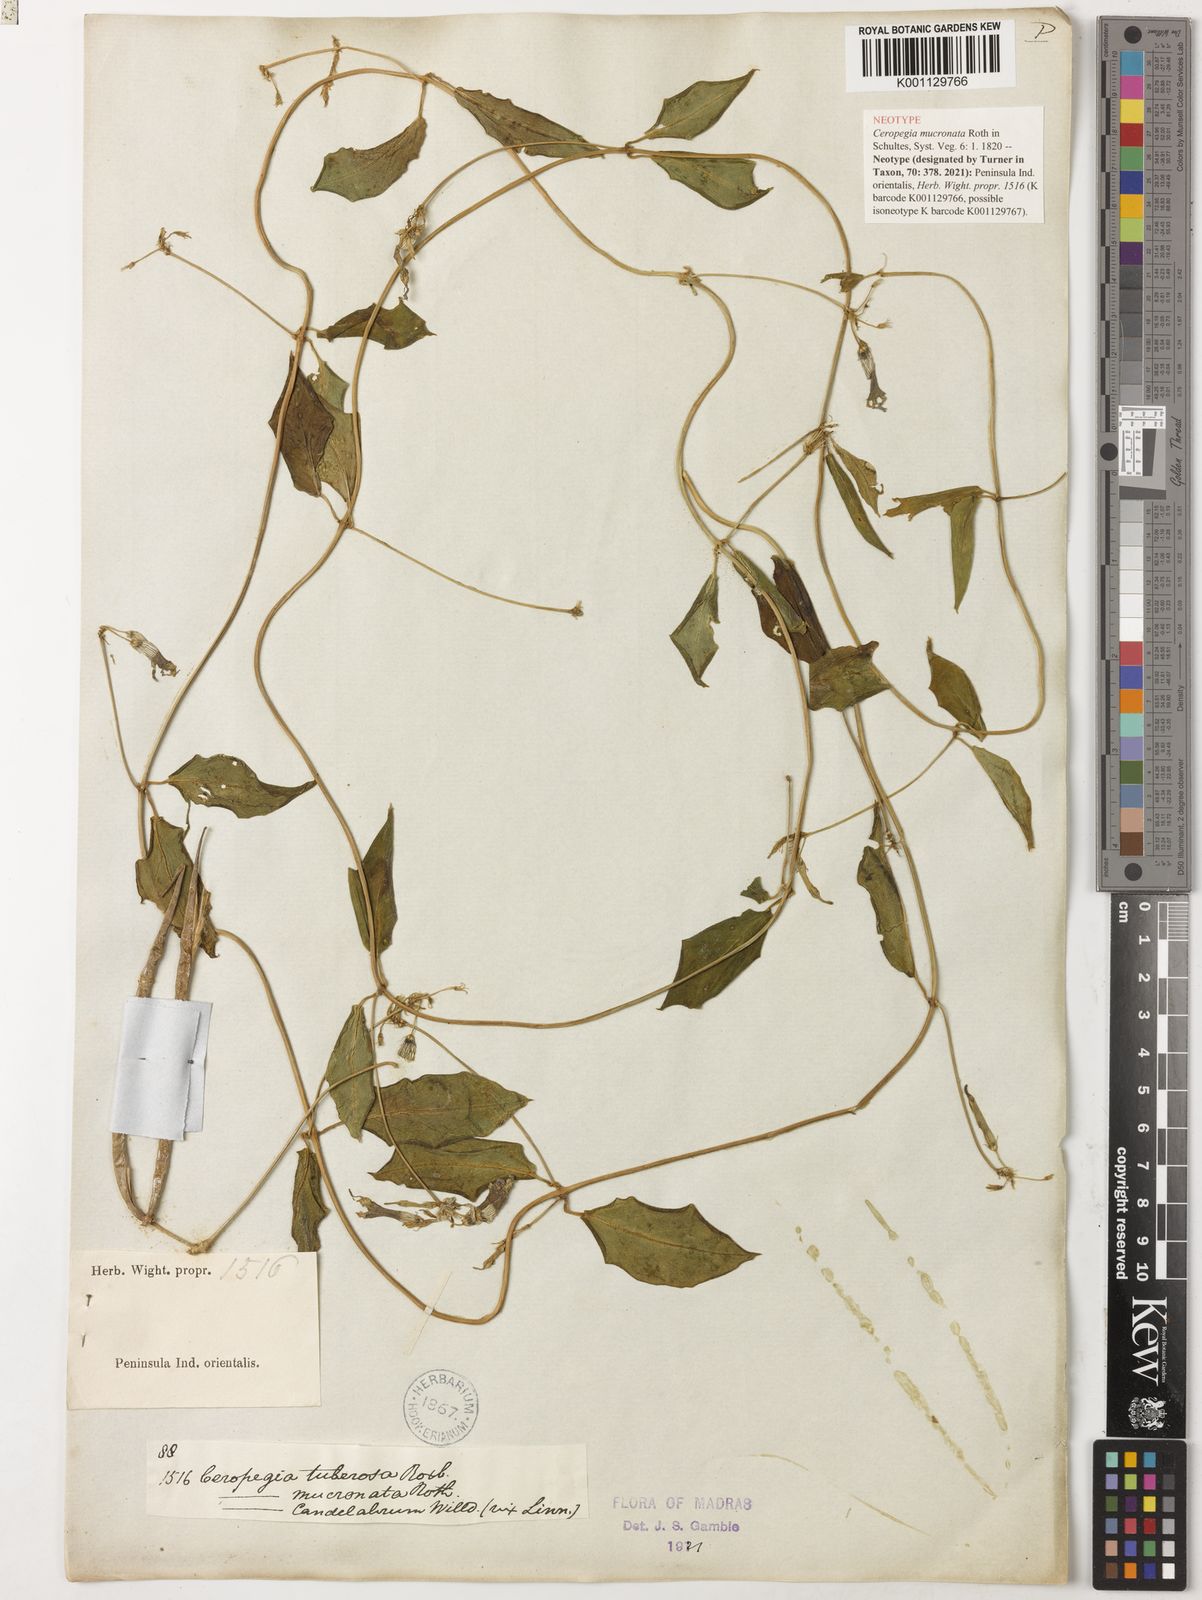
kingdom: Plantae
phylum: Tracheophyta
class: Magnoliopsida
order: Gentianales
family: Apocynaceae
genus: Ceropegia
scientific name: Ceropegia candelabrum
